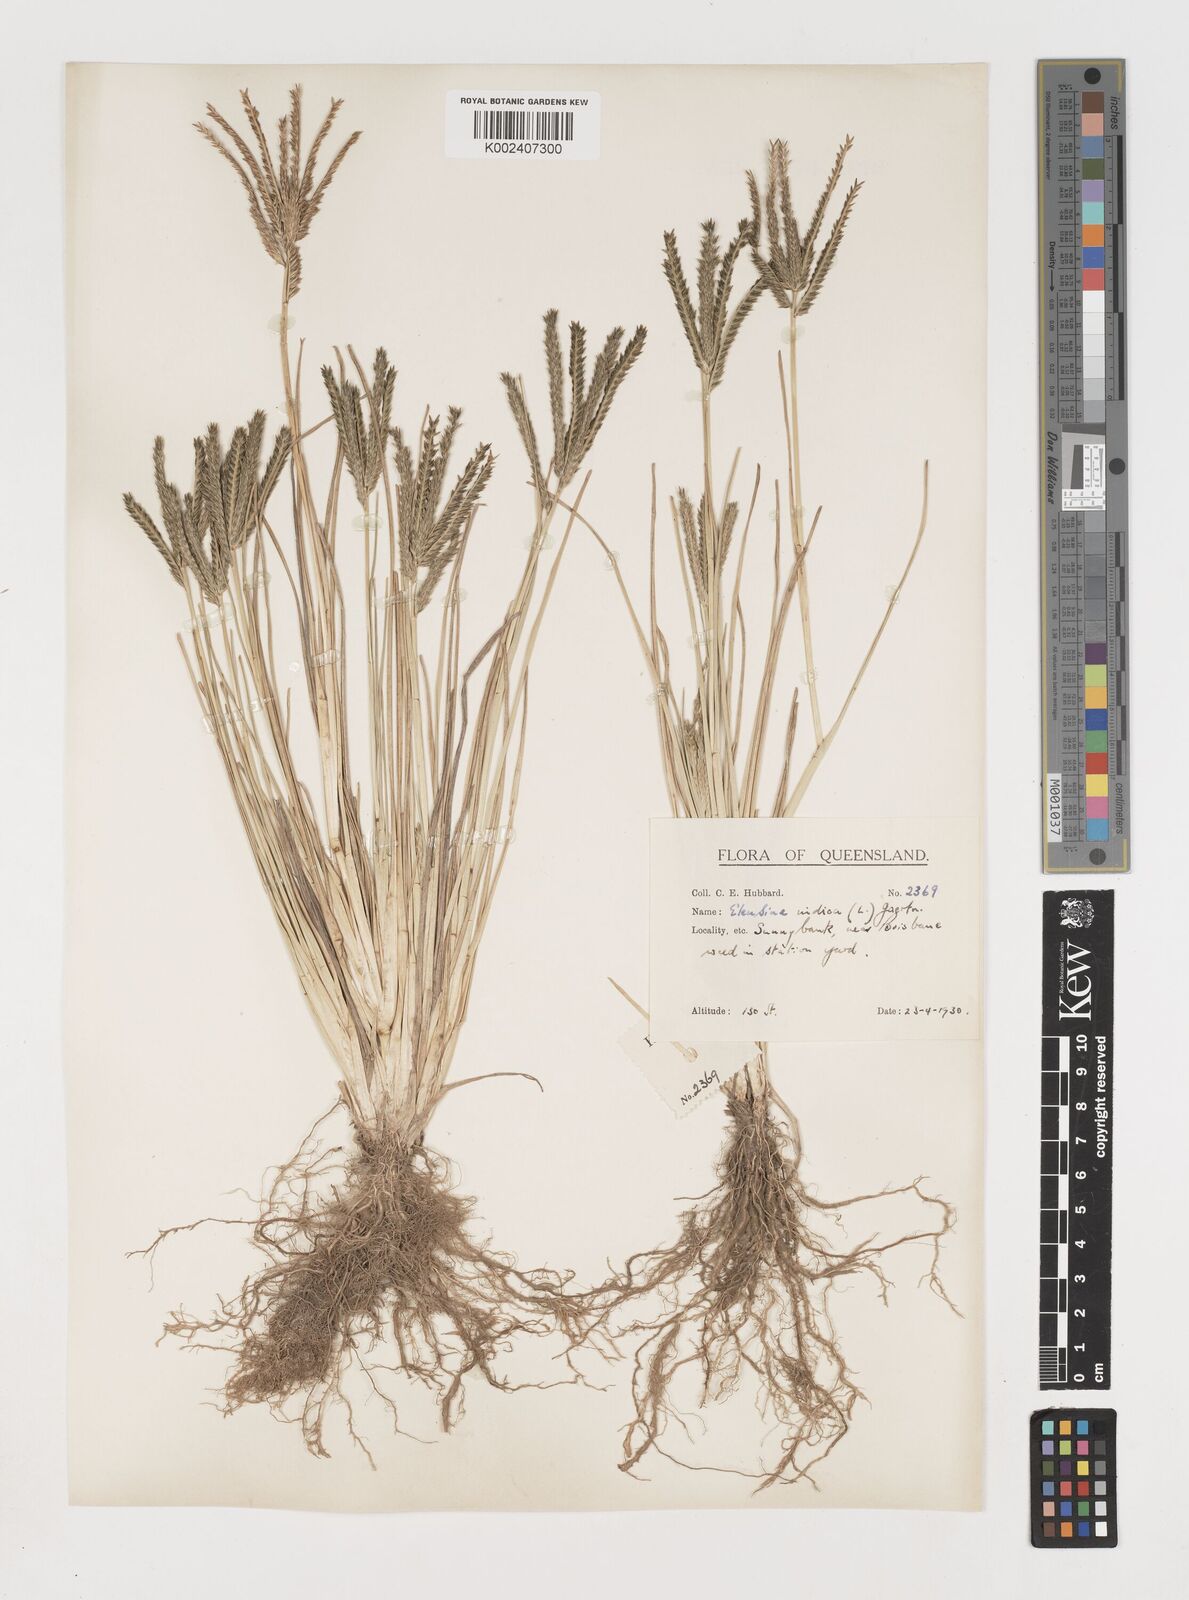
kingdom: Plantae
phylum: Tracheophyta
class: Liliopsida
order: Poales
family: Poaceae
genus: Eleusine
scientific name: Eleusine indica
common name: Yard-grass
